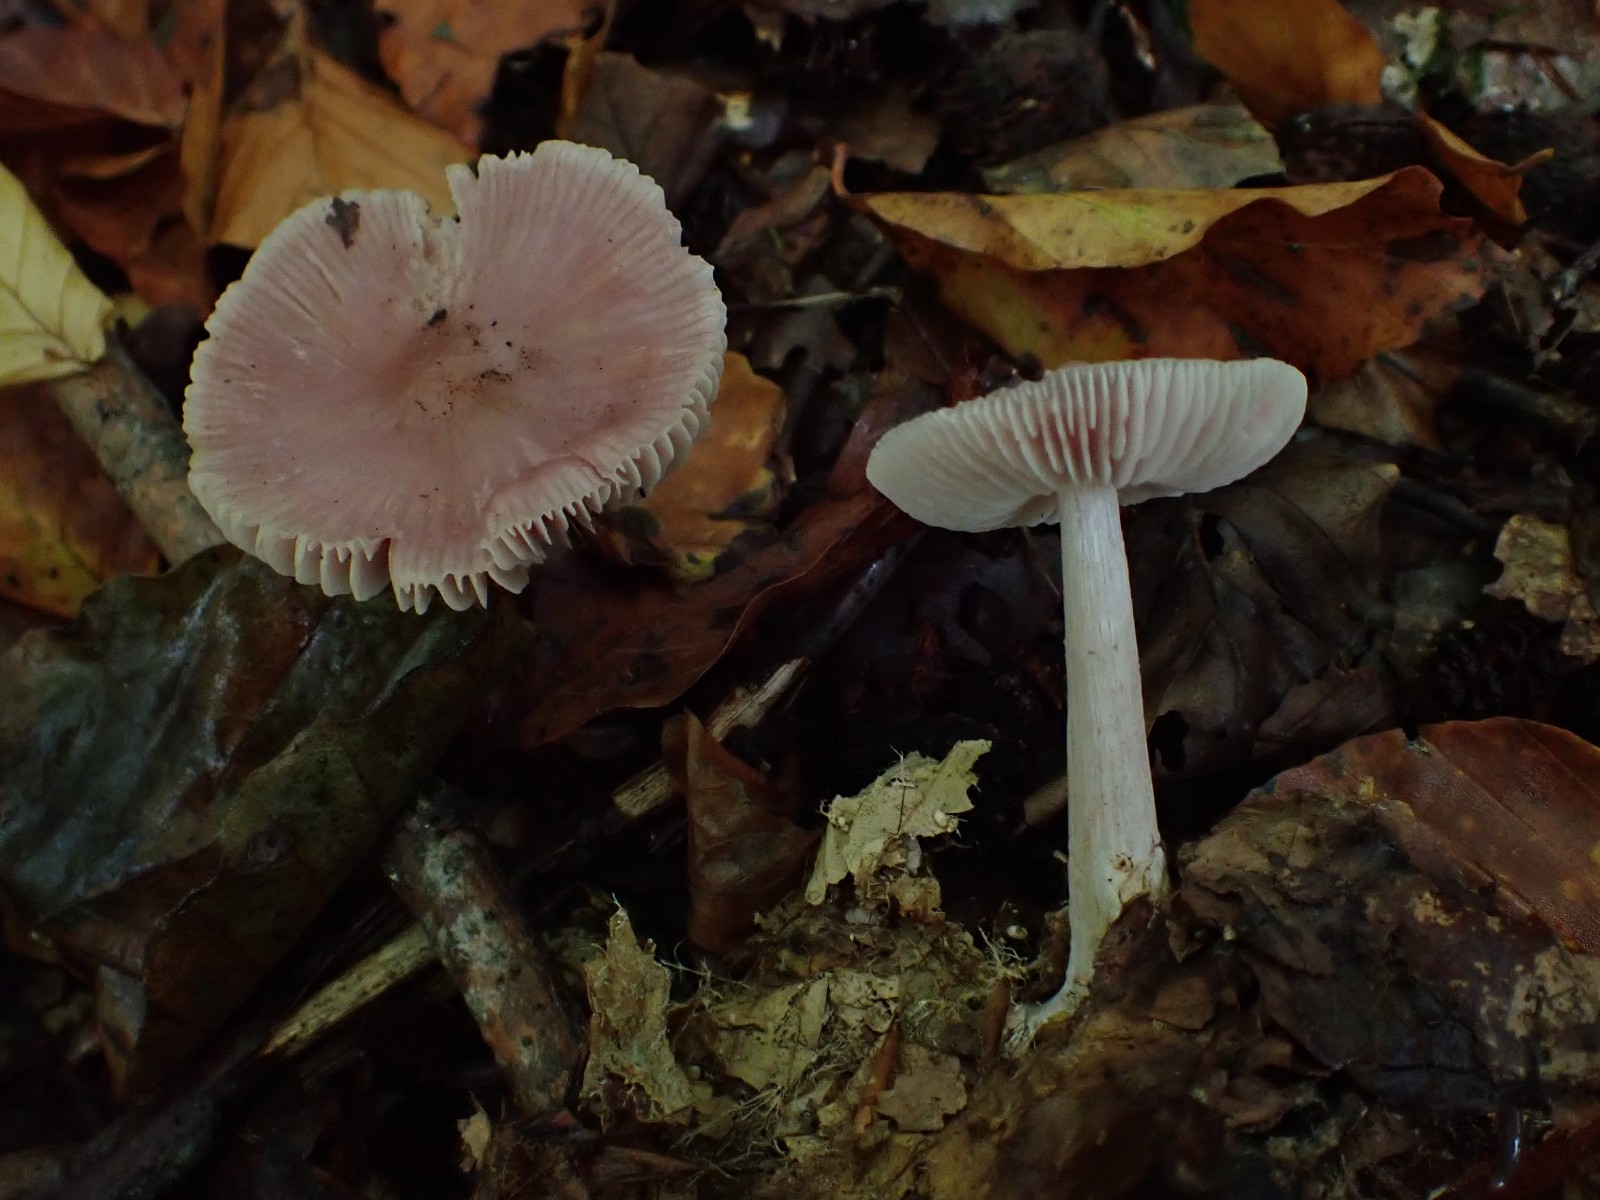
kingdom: Fungi
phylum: Basidiomycota
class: Agaricomycetes
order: Agaricales
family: Mycenaceae
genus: Mycena
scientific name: Mycena rosea
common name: rosa huesvamp
